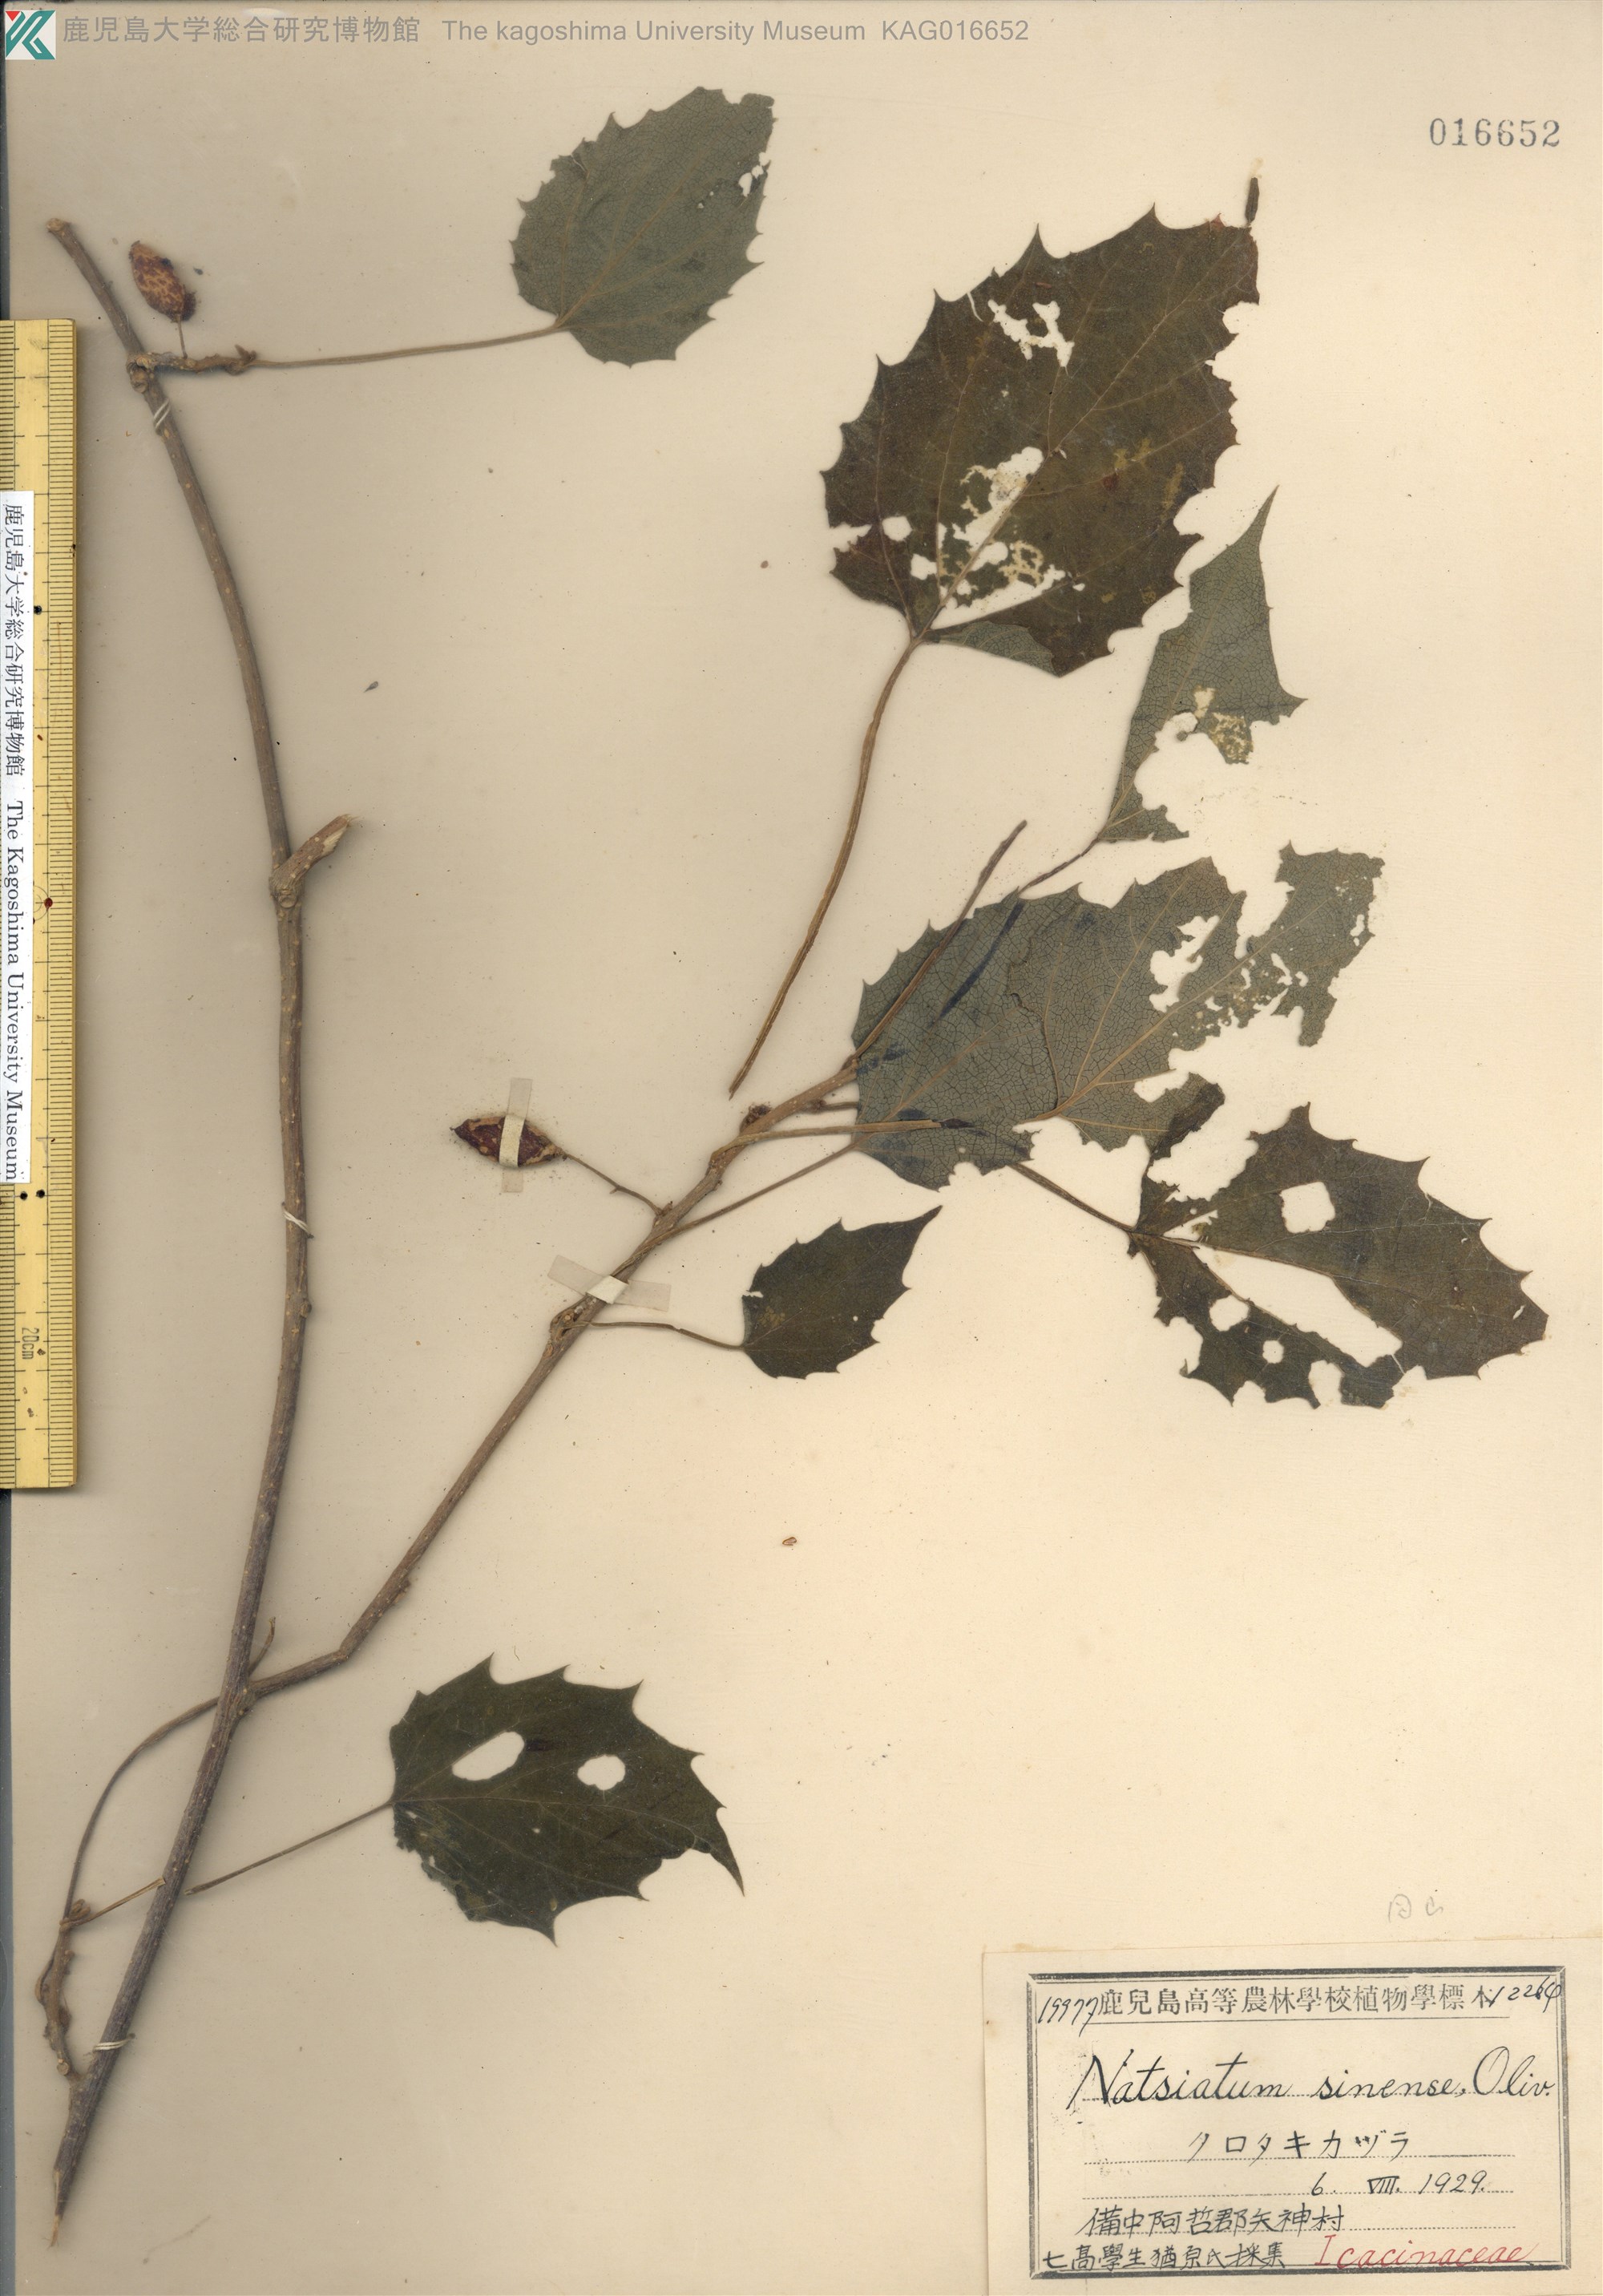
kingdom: Plantae
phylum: Tracheophyta
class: Magnoliopsida
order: Icacinales
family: Icacinaceae
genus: Hosiea
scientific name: Hosiea japonica
